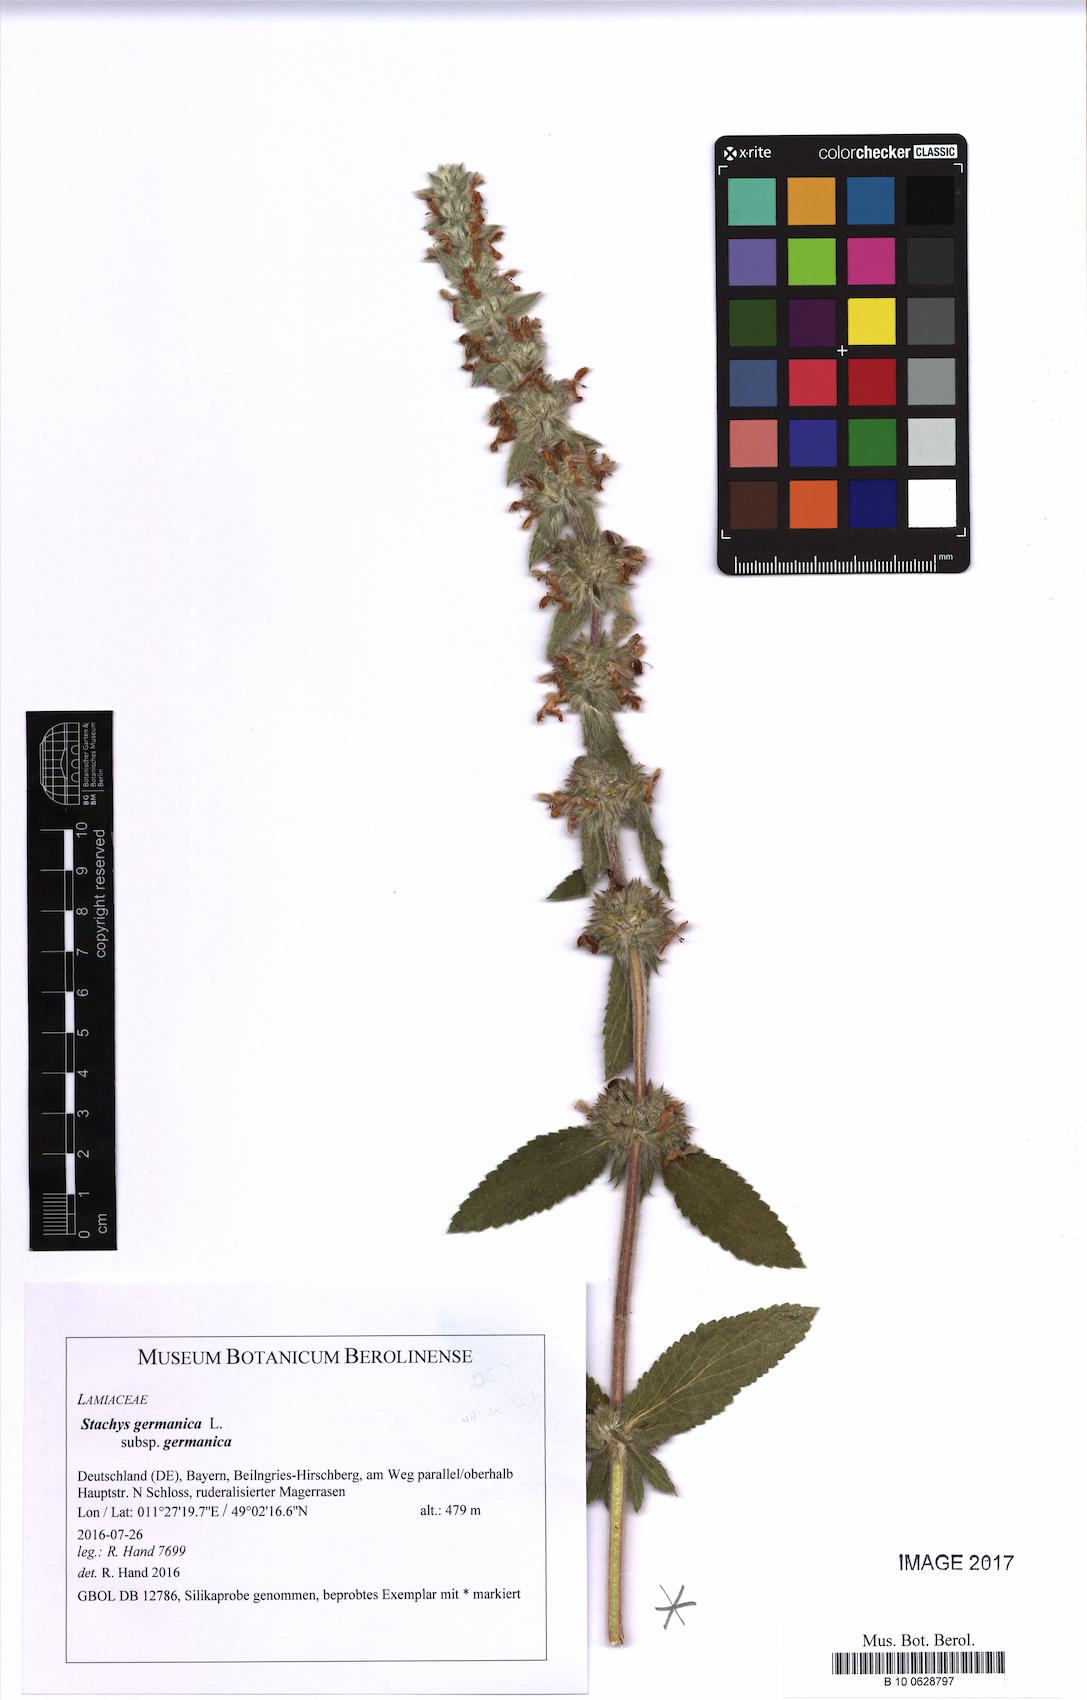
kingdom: Plantae
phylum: Tracheophyta
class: Magnoliopsida
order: Lamiales
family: Lamiaceae
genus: Stachys
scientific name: Stachys germanica
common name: Downy woundwort
